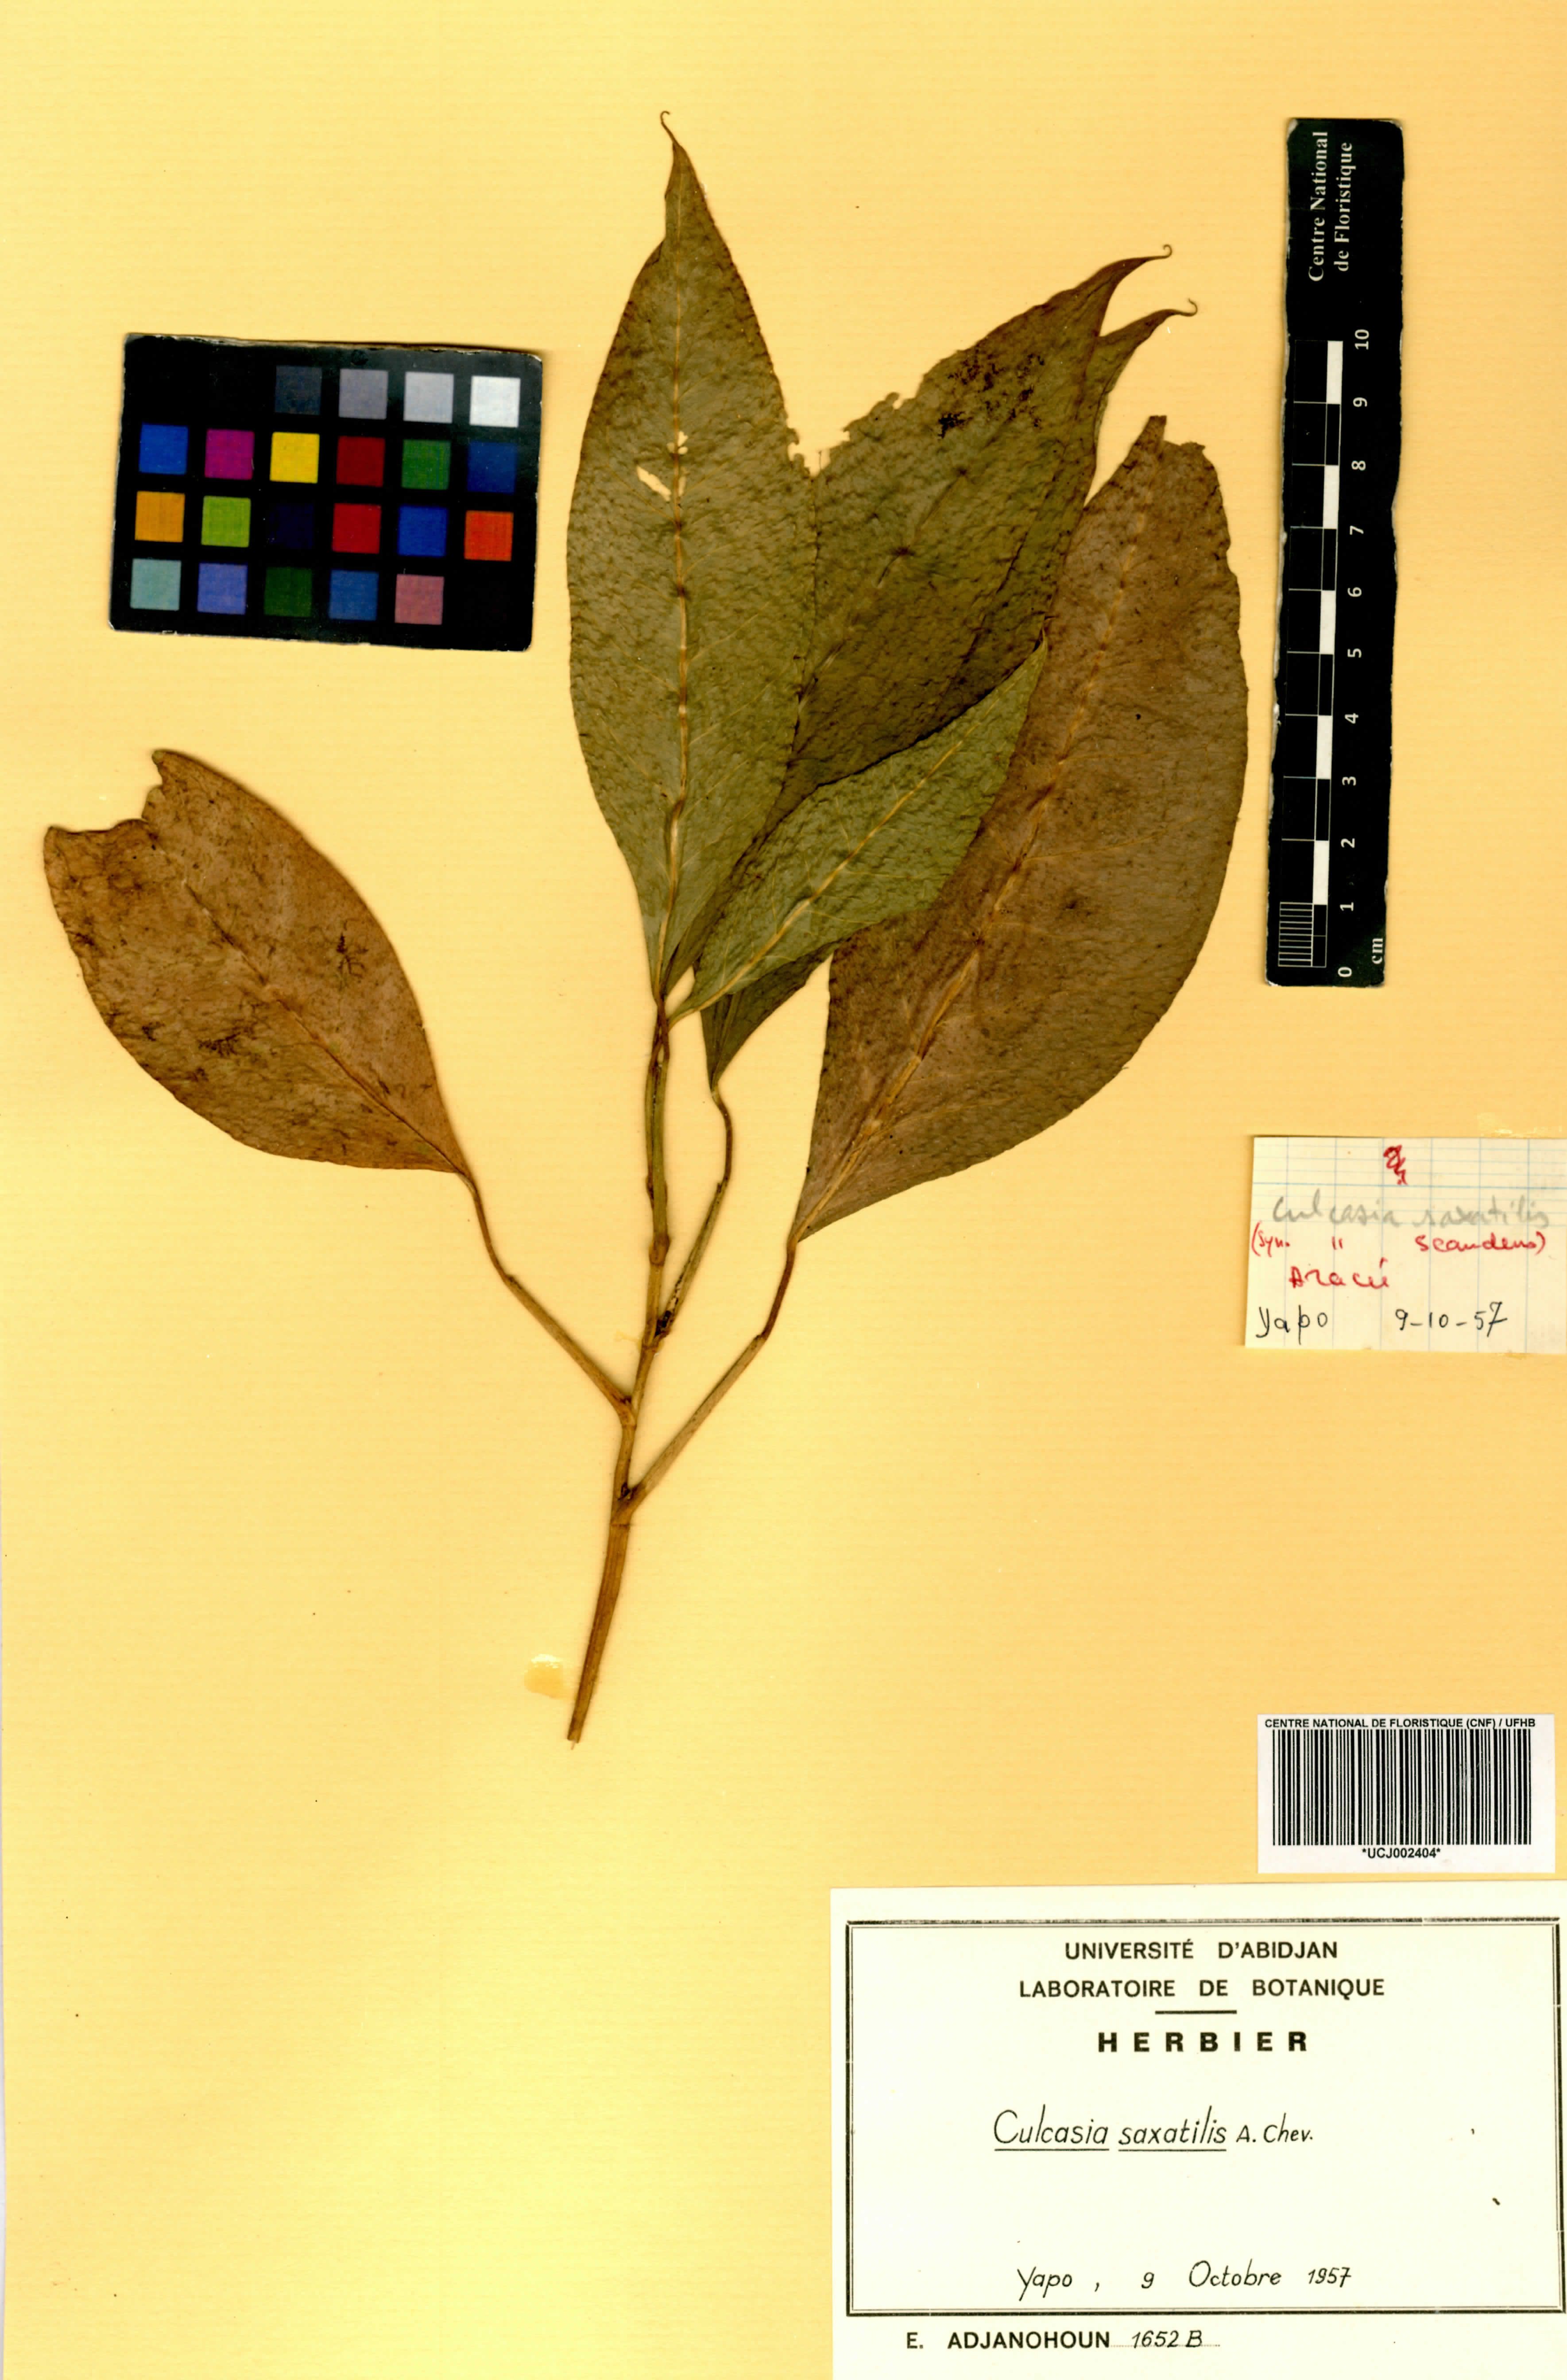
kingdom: Plantae
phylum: Tracheophyta
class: Liliopsida
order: Alismatales
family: Araceae
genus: Culcasia
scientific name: Culcasia scandens
